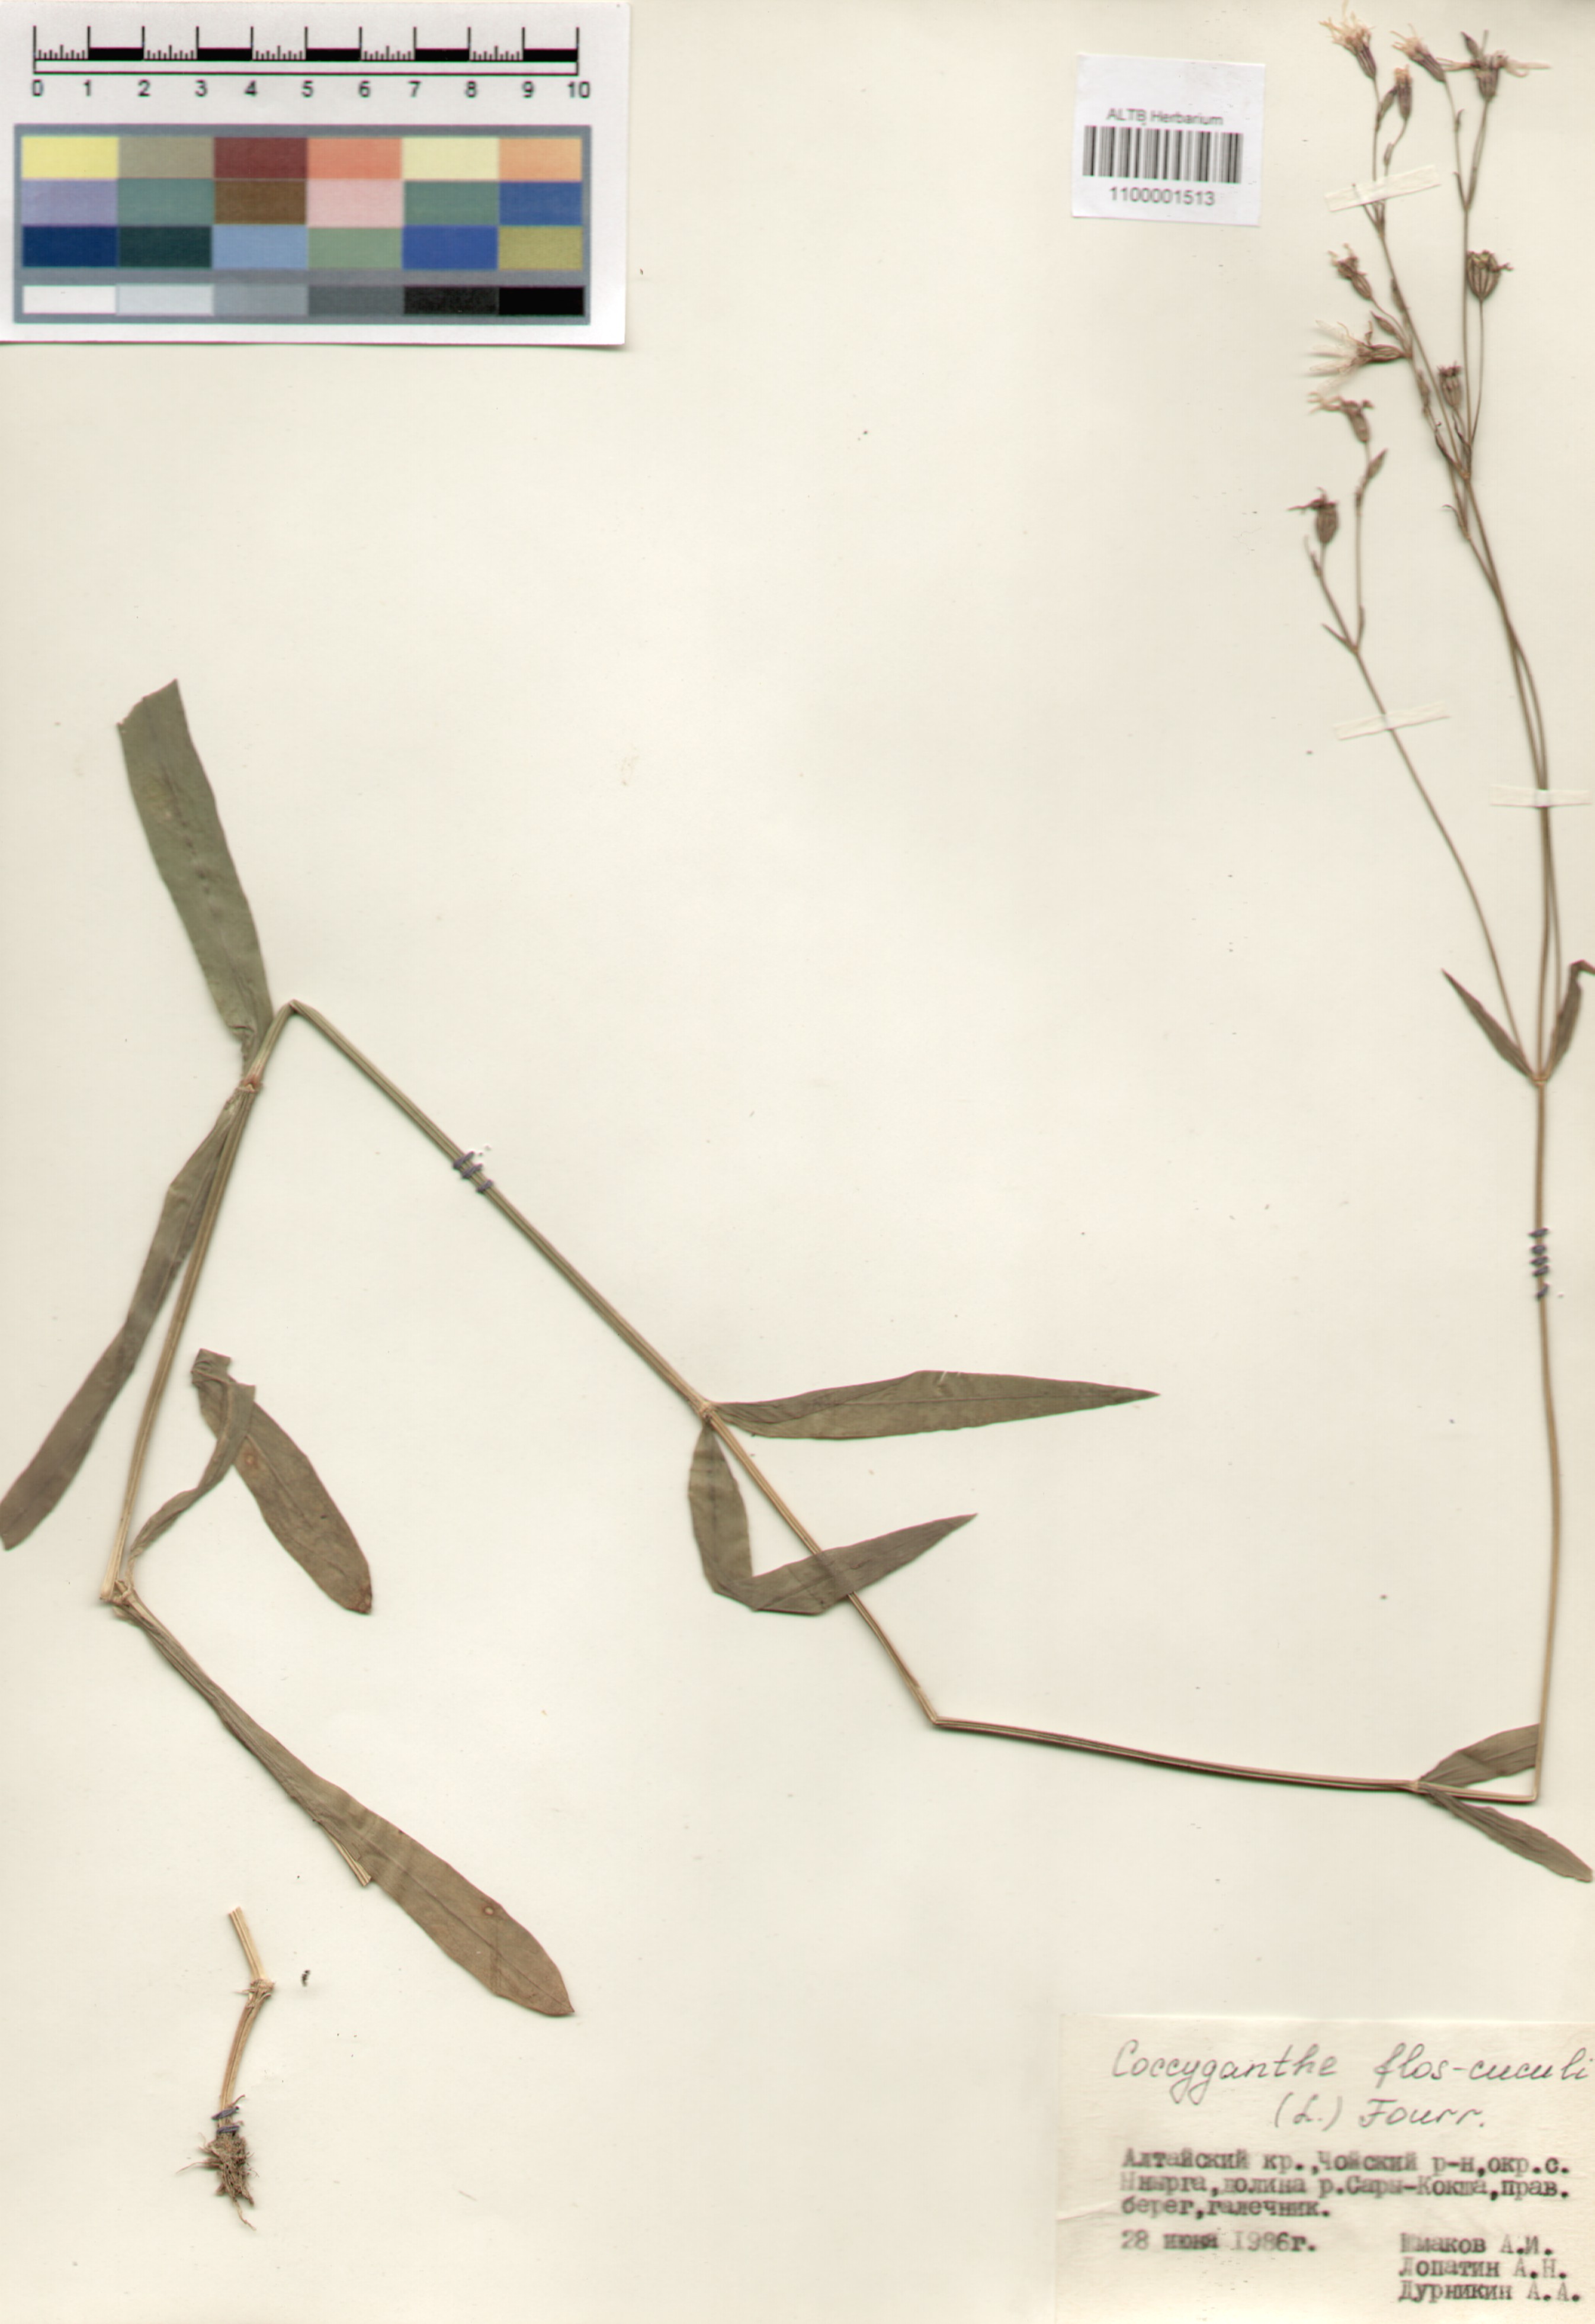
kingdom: Plantae
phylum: Tracheophyta
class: Magnoliopsida
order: Caryophyllales
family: Caryophyllaceae
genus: Silene
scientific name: Silene flos-cuculi
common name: Ragged-robin
